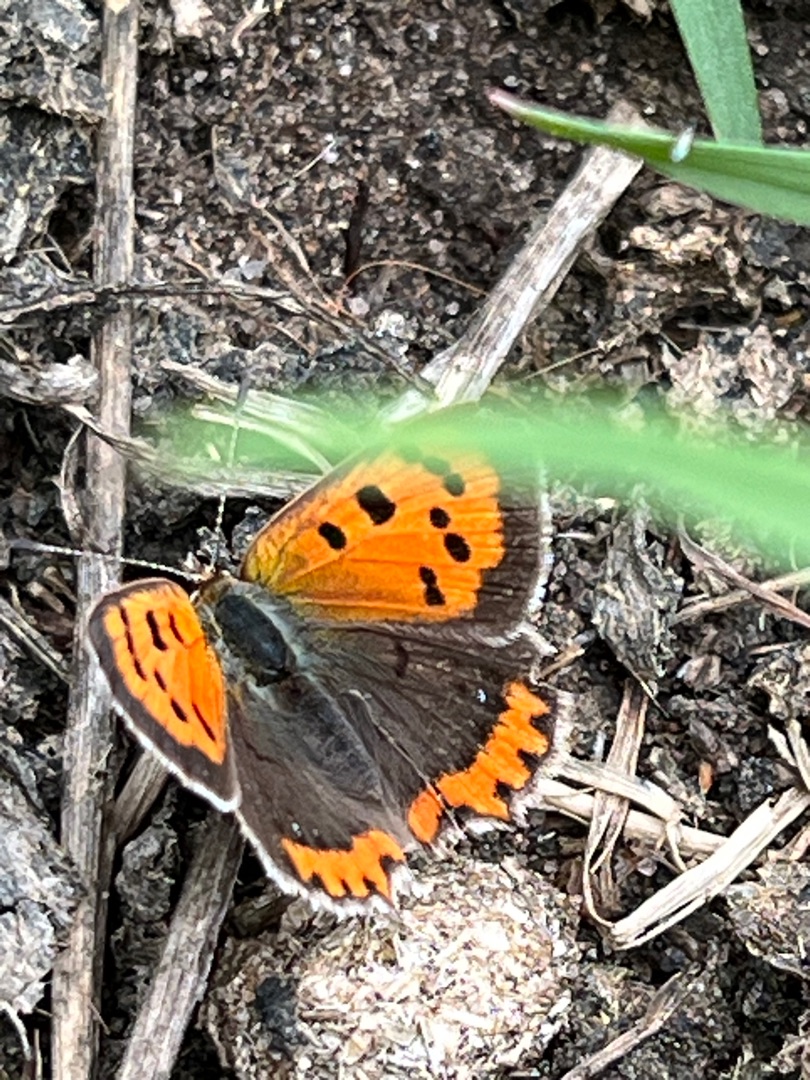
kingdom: Animalia
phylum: Arthropoda
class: Insecta
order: Lepidoptera
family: Lycaenidae
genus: Lycaena
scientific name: Lycaena phlaeas
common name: Lille ildfugl
